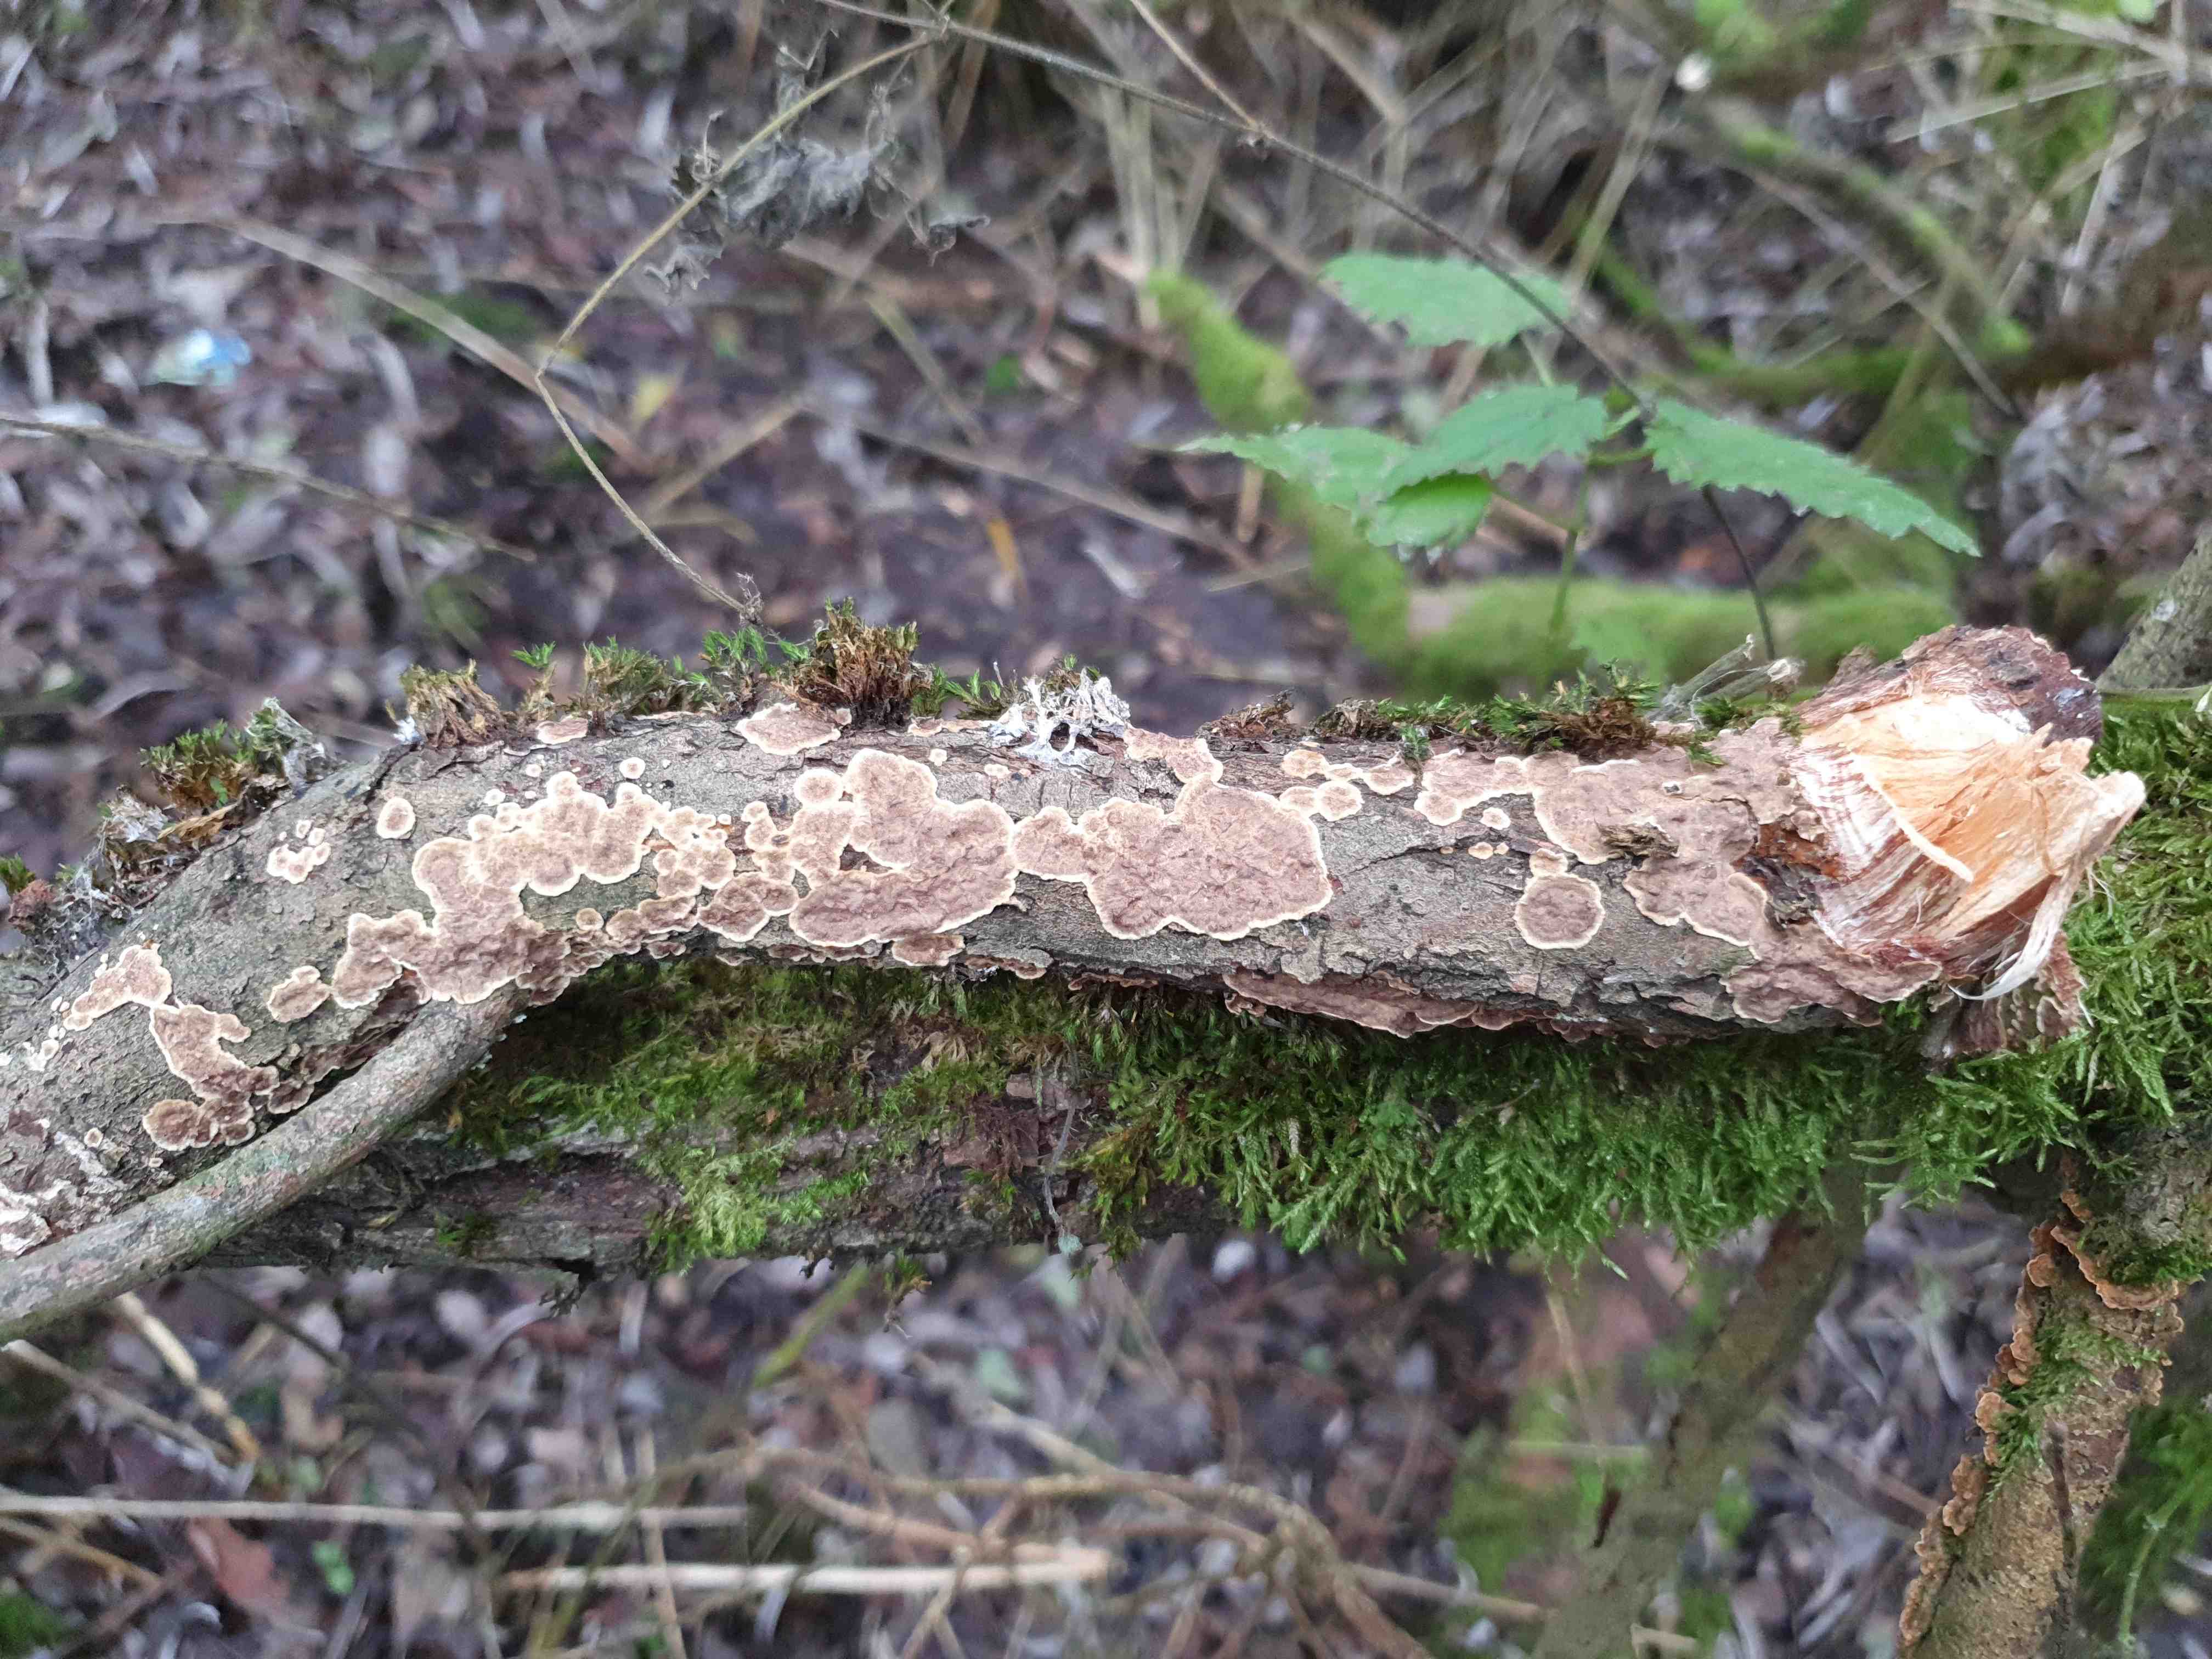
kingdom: Fungi
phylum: Basidiomycota
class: Agaricomycetes
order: Hymenochaetales
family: Hymenochaetaceae
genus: Hydnoporia
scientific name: Hydnoporia tabacina
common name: tobaksbrun ruslædersvamp
